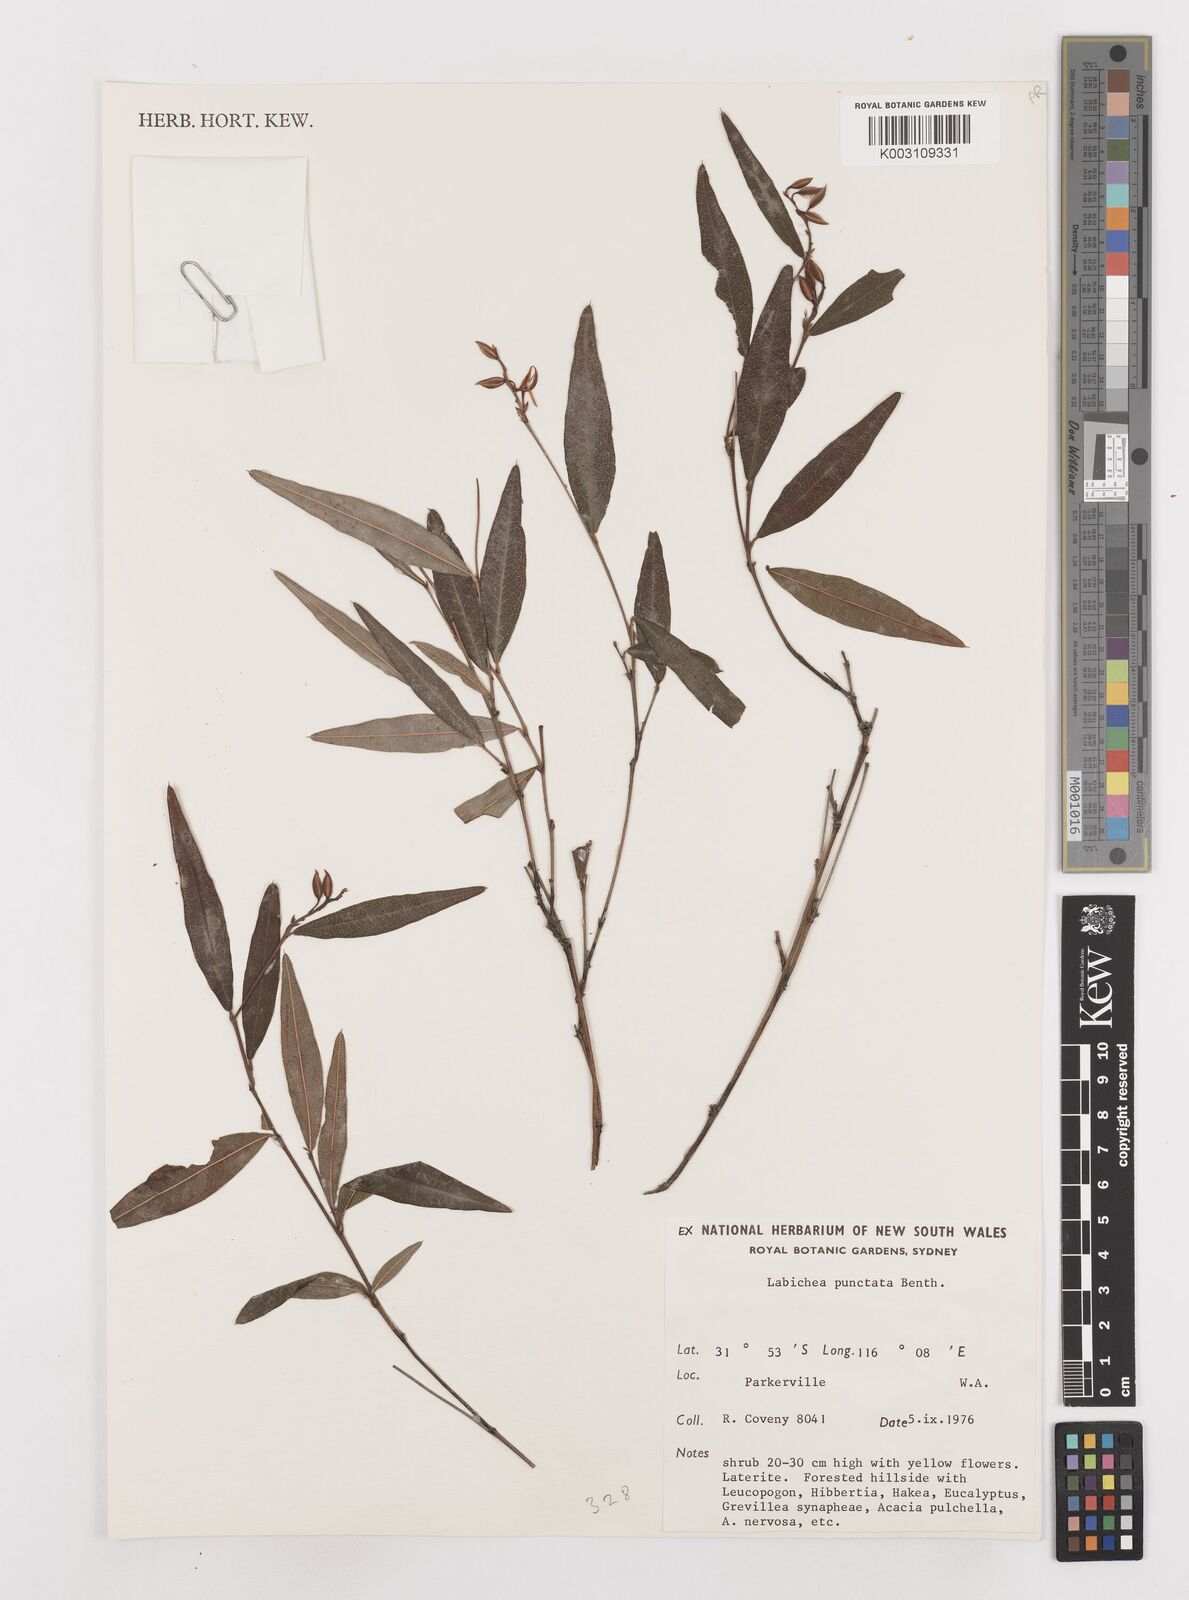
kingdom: Plantae
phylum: Tracheophyta
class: Magnoliopsida
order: Fabales
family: Fabaceae
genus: Labichea
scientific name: Labichea punctata
